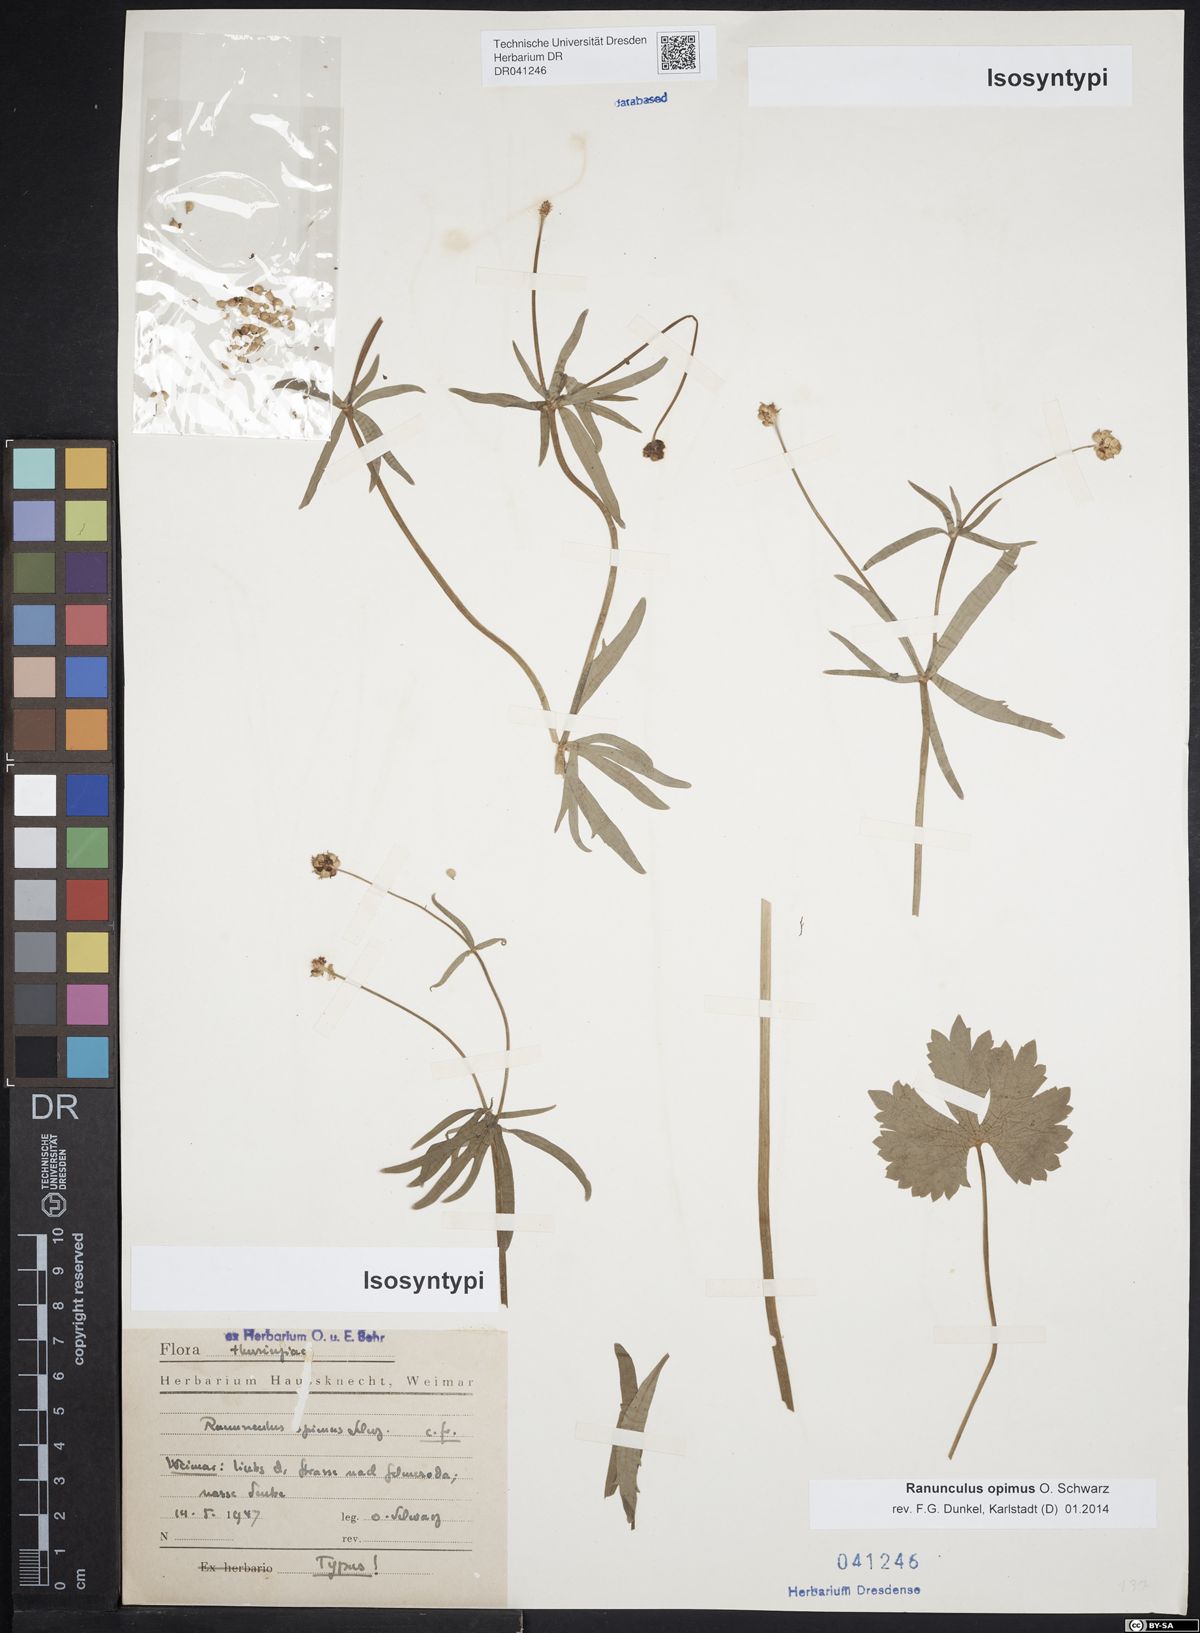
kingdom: Plantae
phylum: Tracheophyta
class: Magnoliopsida
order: Ranunculales
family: Ranunculaceae
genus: Ranunculus
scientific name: Ranunculus opimus
